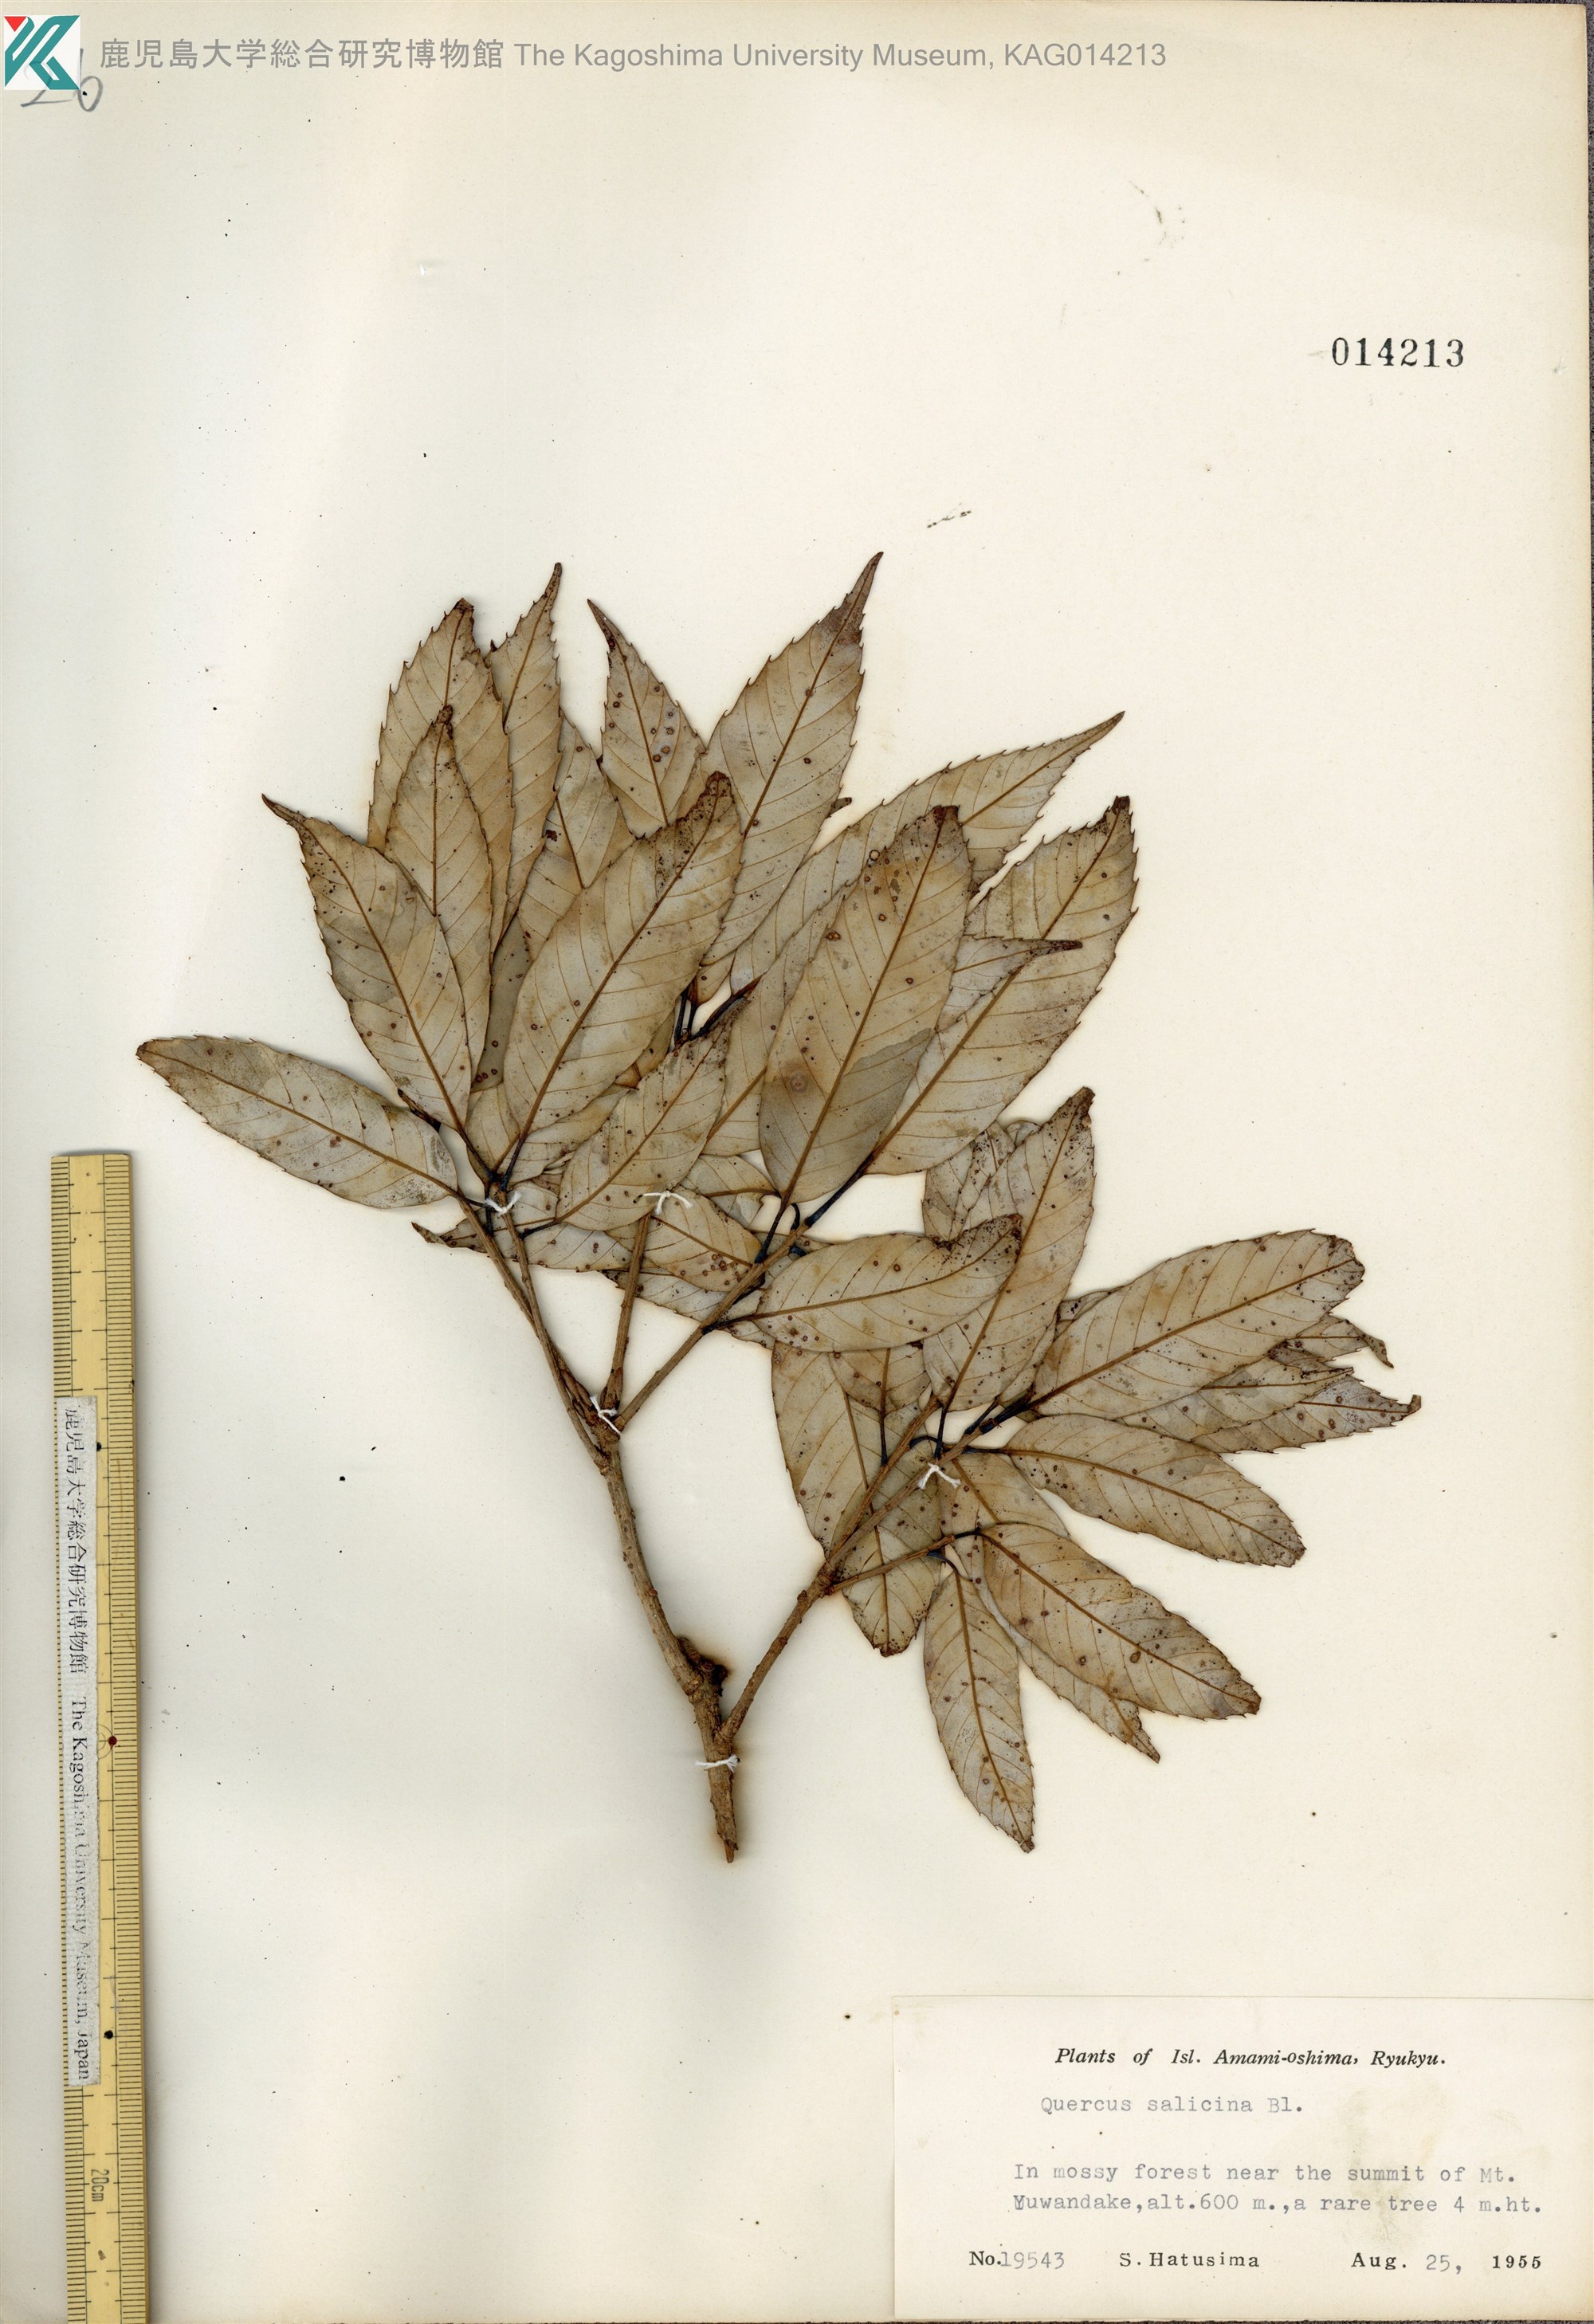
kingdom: Plantae
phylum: Tracheophyta
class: Magnoliopsida
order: Fagales
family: Fagaceae
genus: Quercus
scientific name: Quercus salicina
